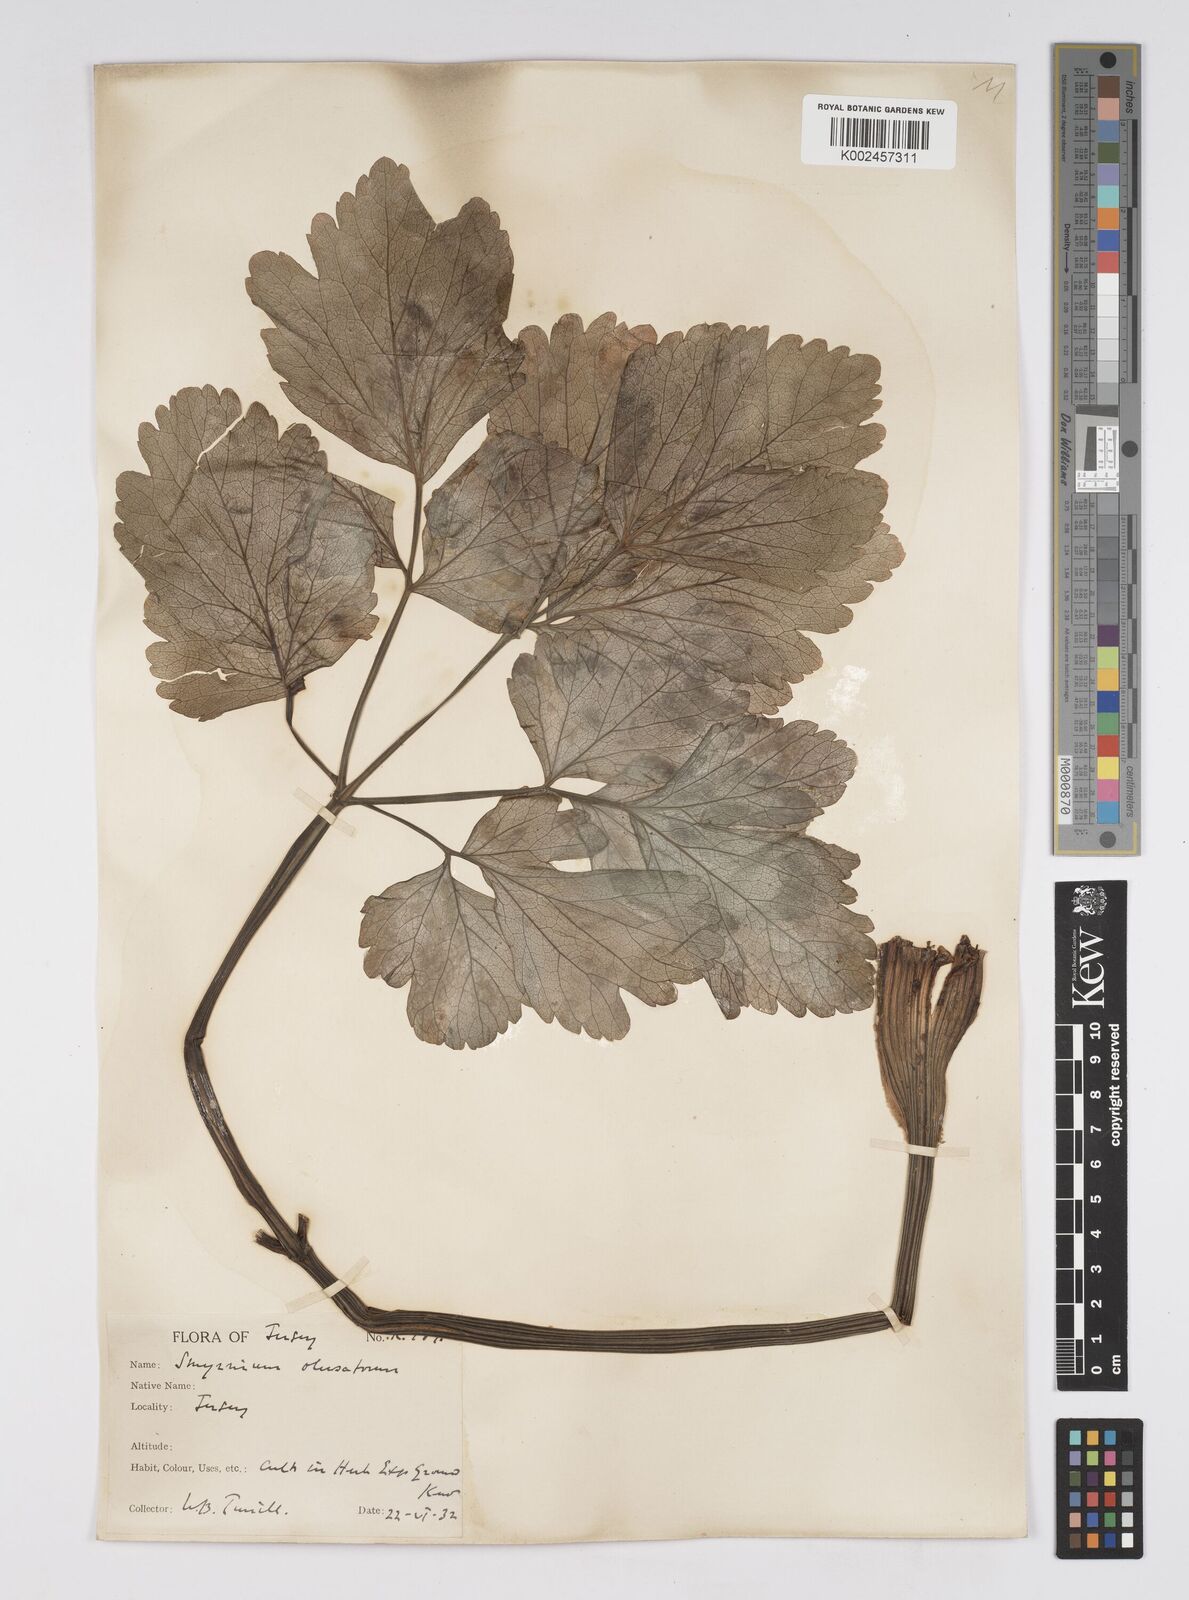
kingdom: Plantae
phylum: Tracheophyta
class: Magnoliopsida
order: Apiales
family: Apiaceae
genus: Smyrnium
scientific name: Smyrnium olusatrum
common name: Alexanders
